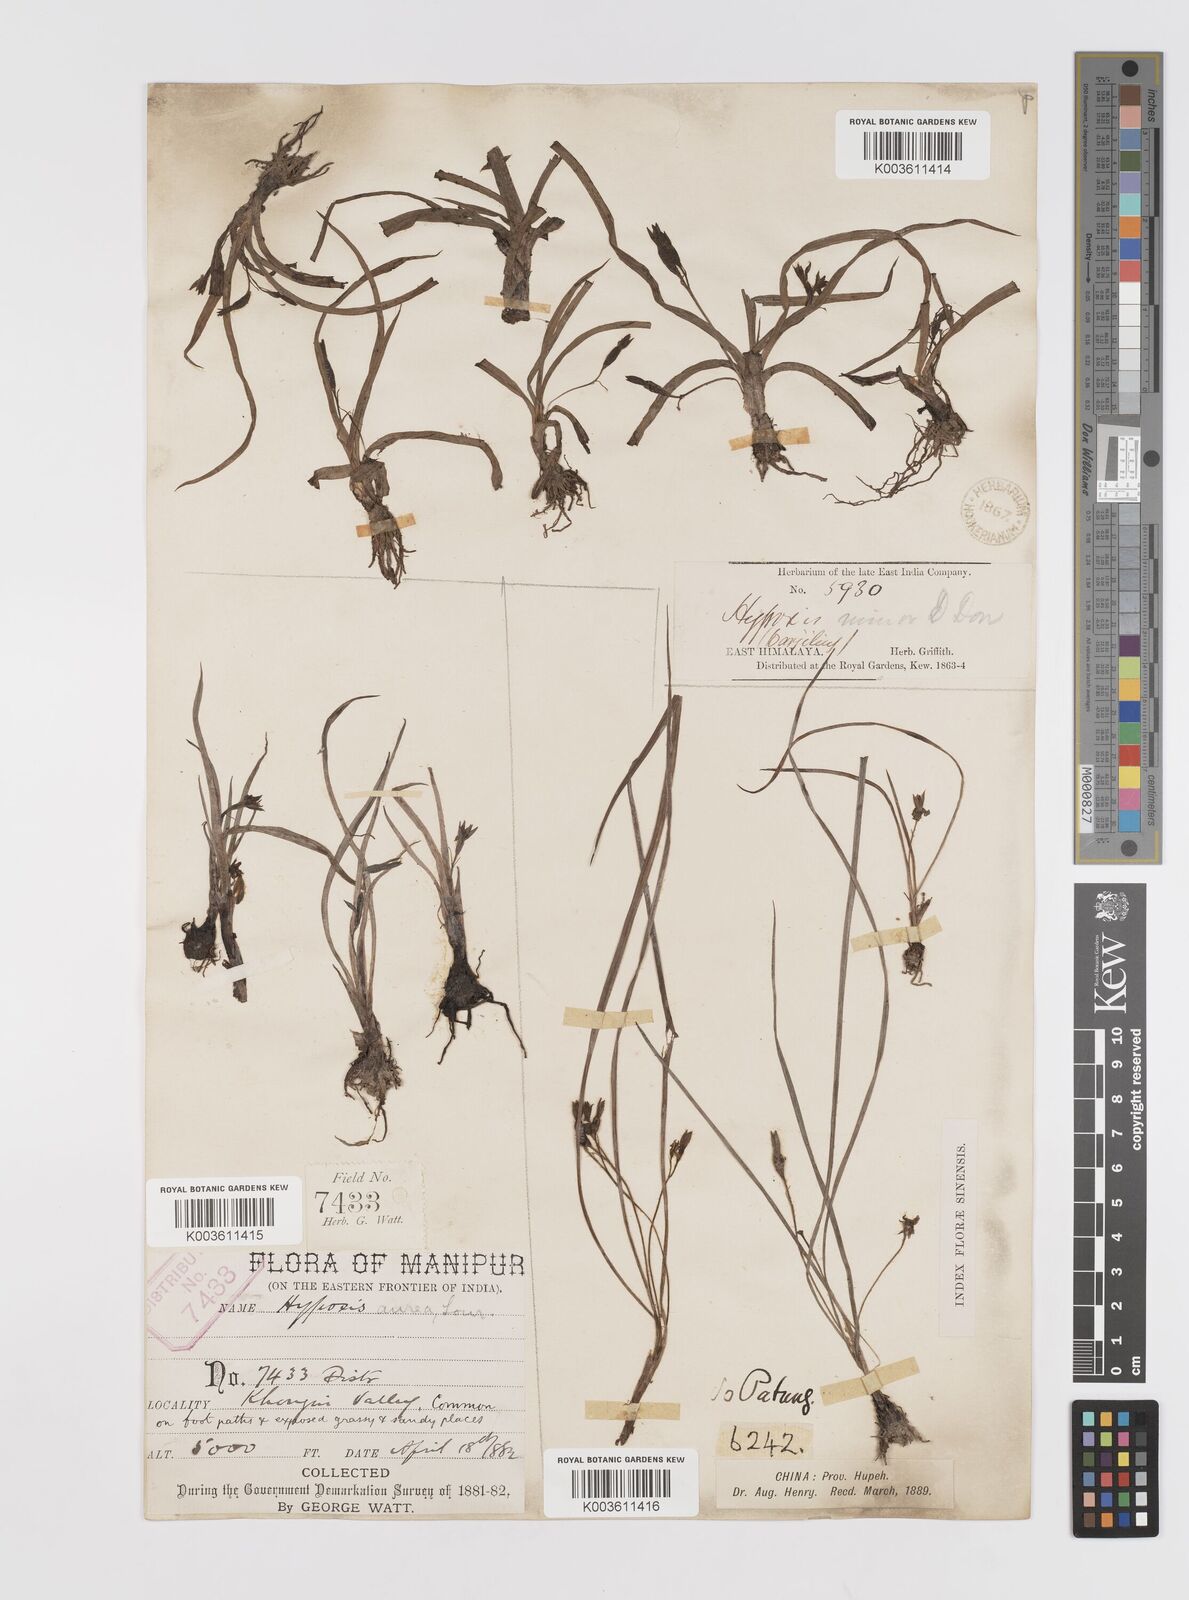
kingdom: Plantae
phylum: Tracheophyta
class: Liliopsida
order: Asparagales
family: Hypoxidaceae
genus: Hypoxis
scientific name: Hypoxis aurea
